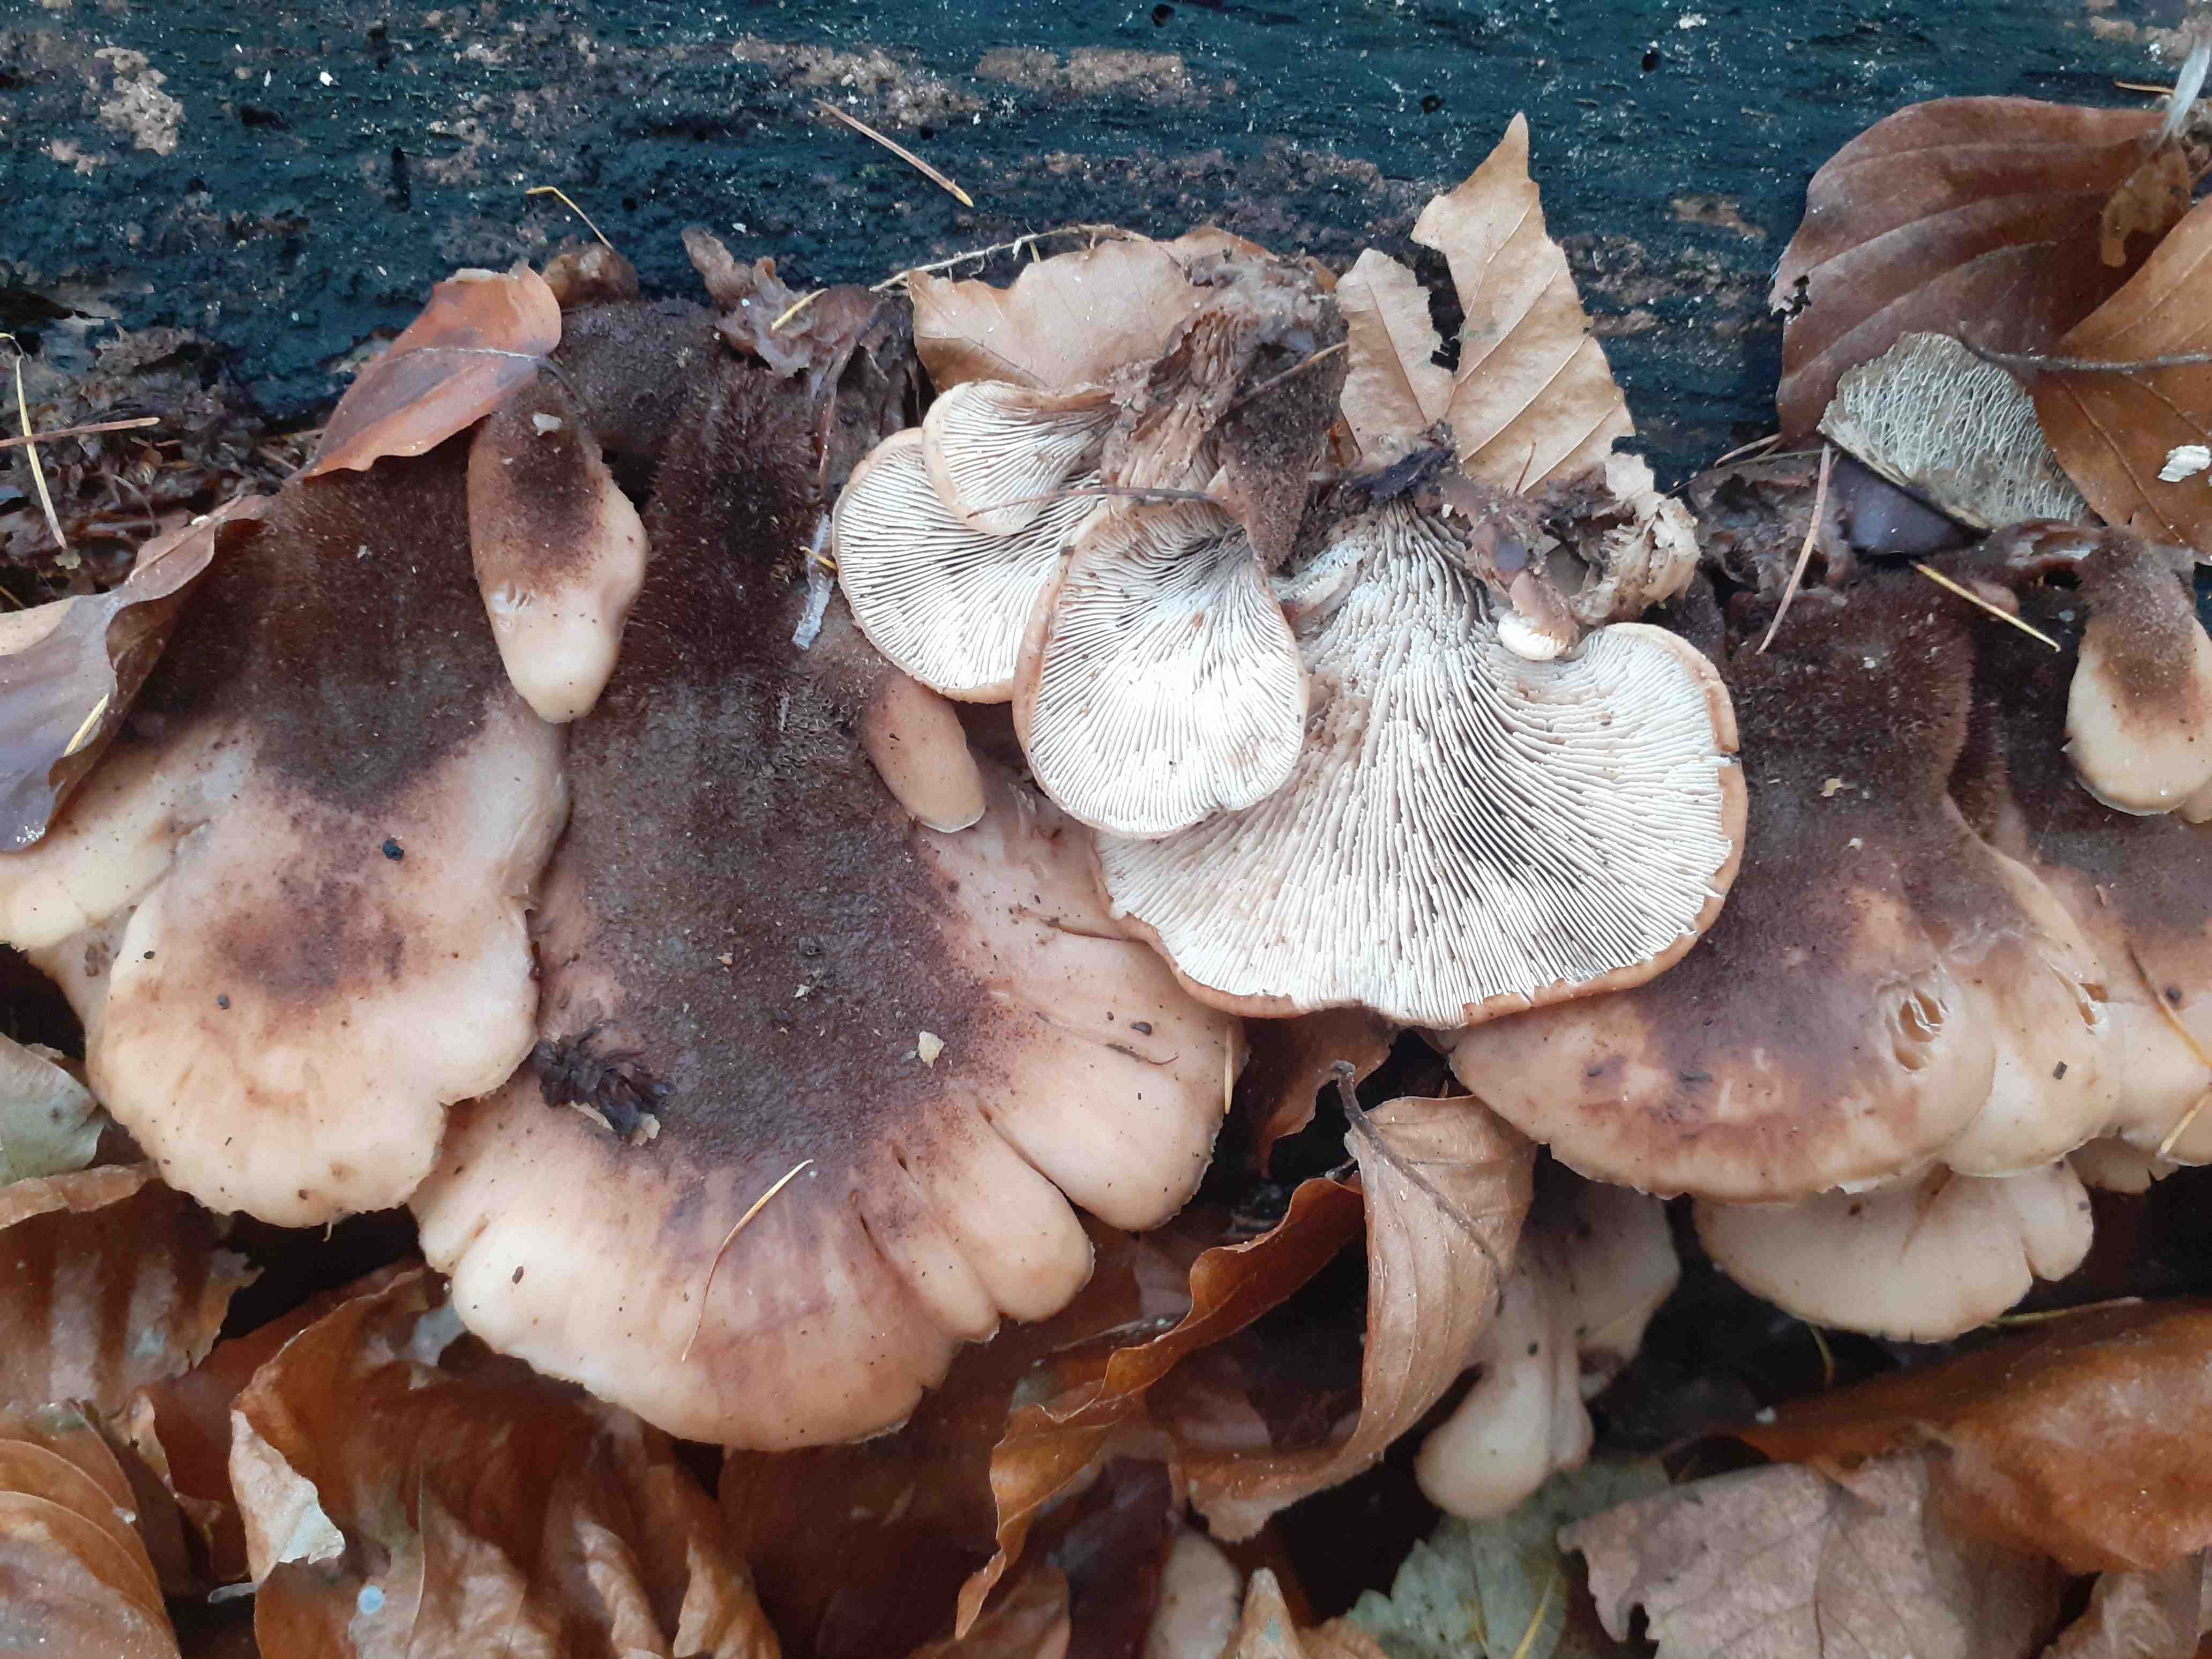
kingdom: Fungi
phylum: Basidiomycota
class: Agaricomycetes
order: Russulales
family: Auriscalpiaceae
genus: Lentinellus
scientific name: Lentinellus ursinus
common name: børstehåret savbladhat
